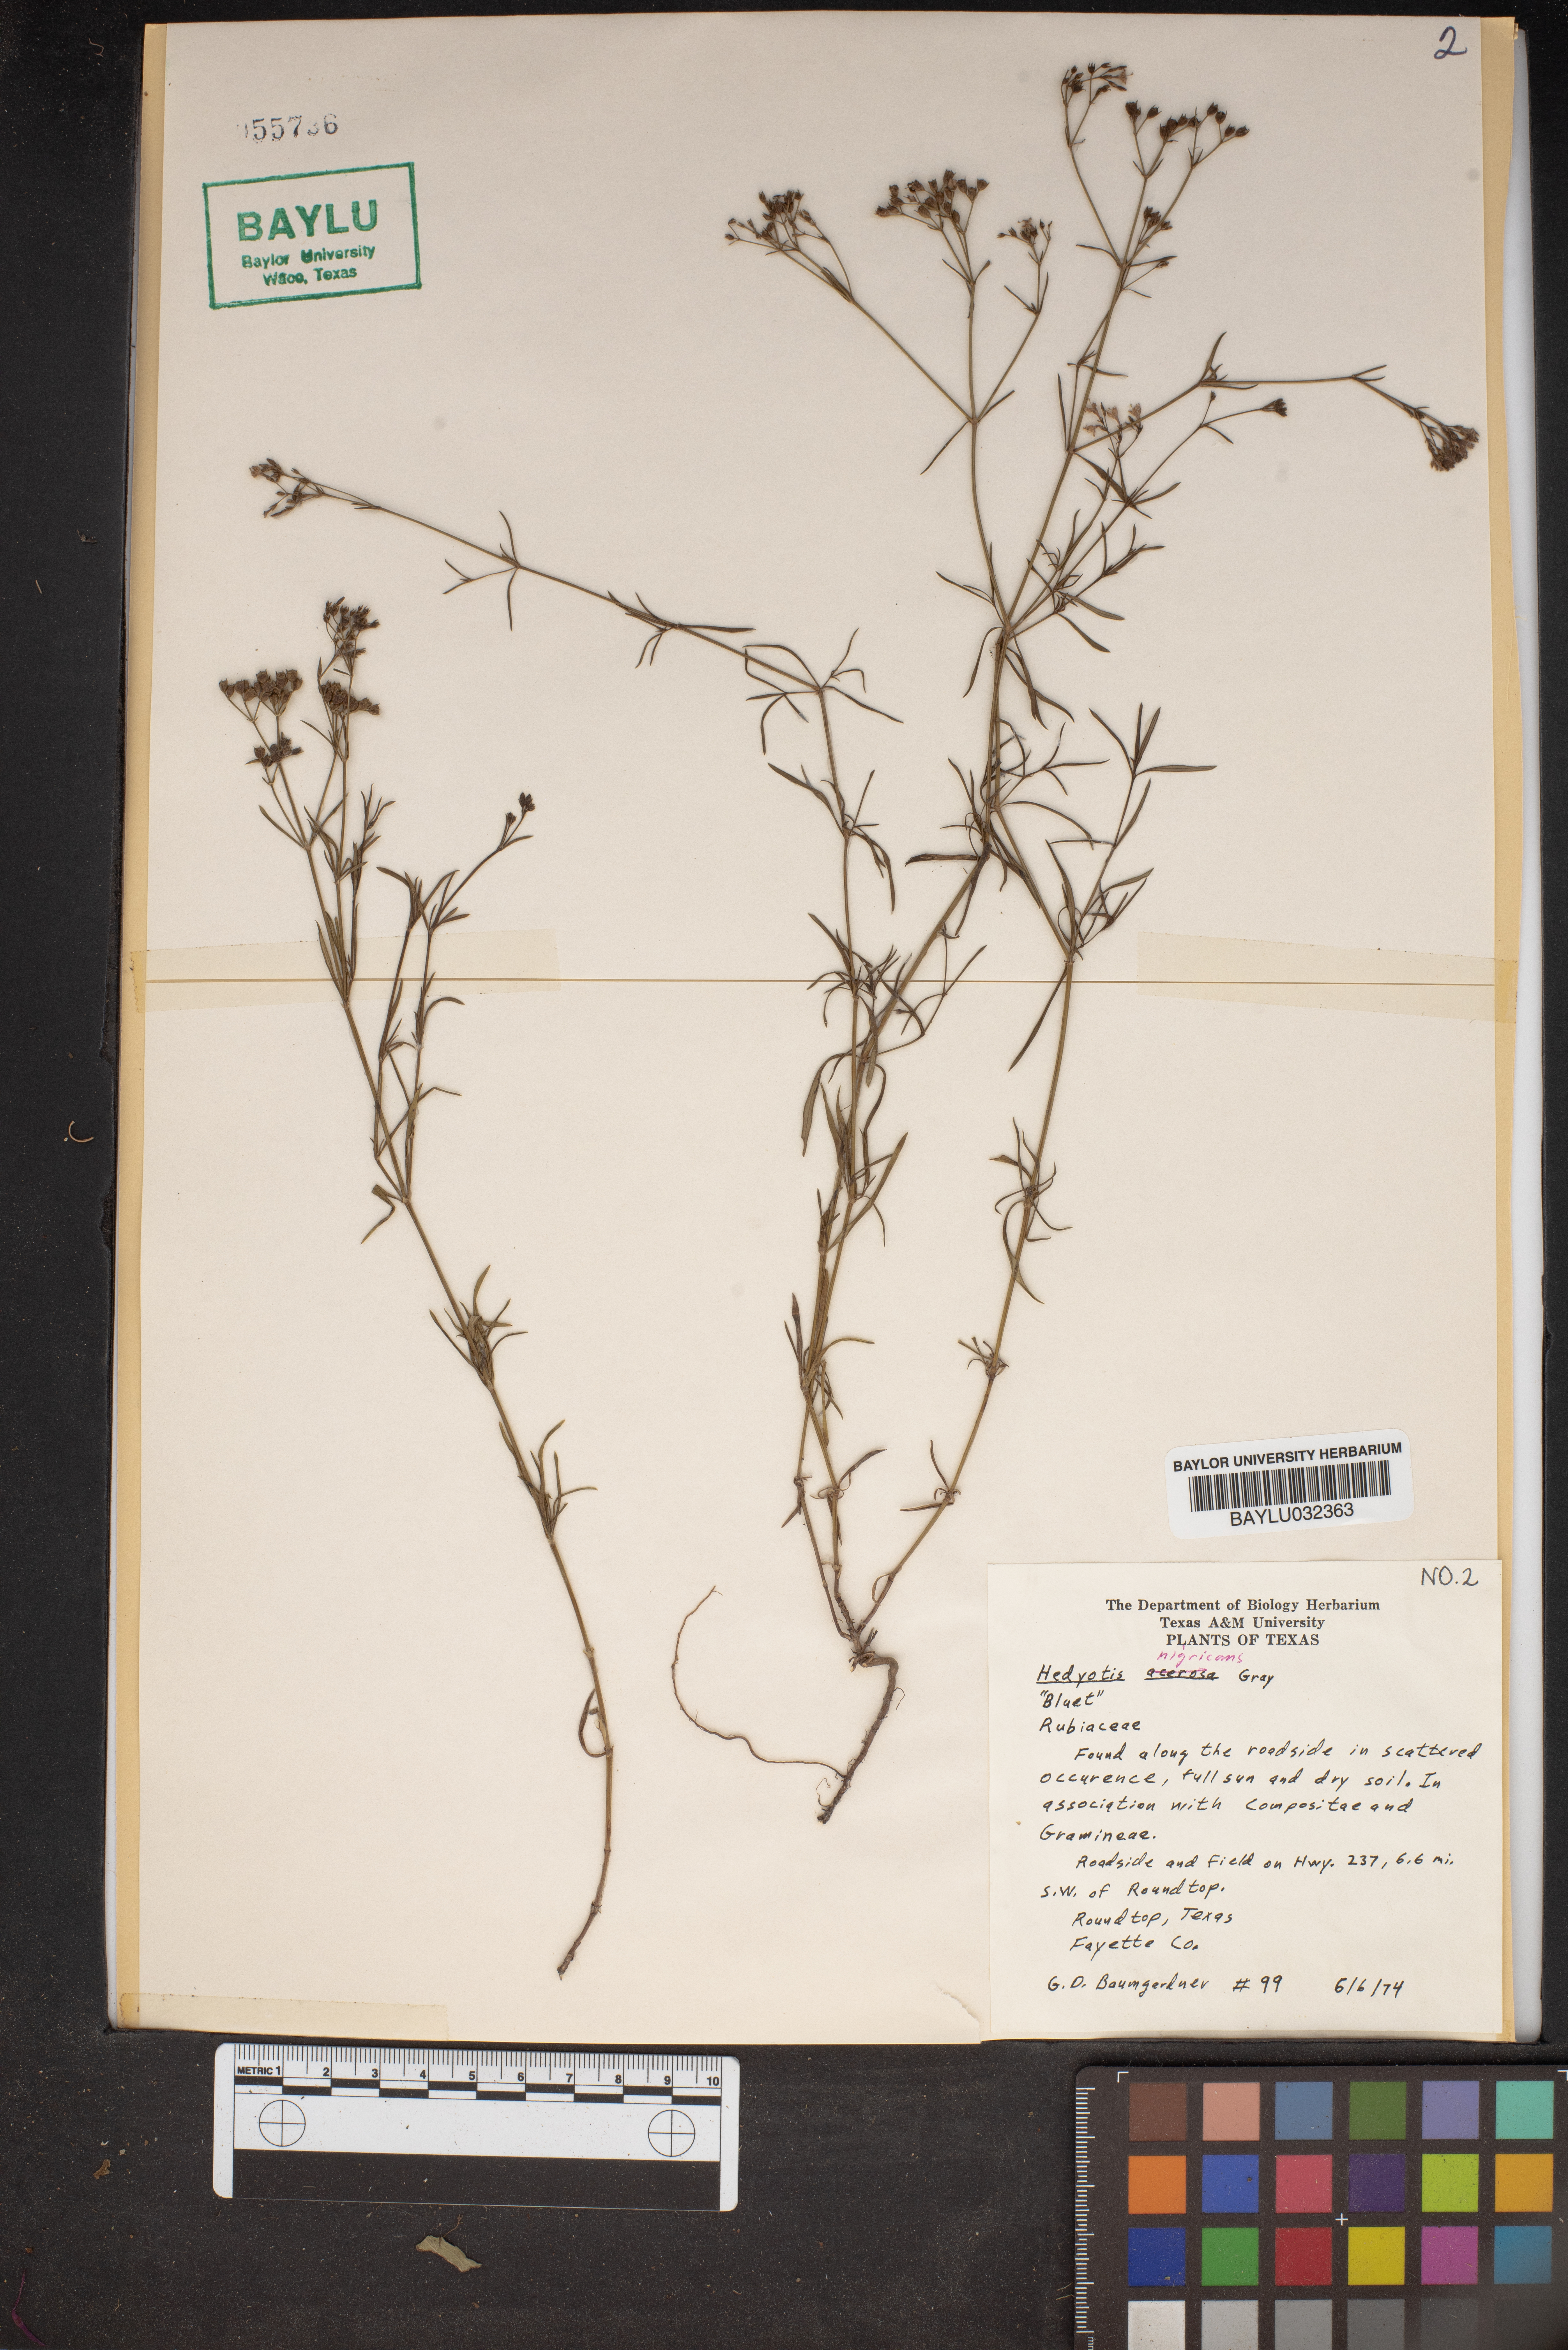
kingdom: Plantae
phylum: Tracheophyta
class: Magnoliopsida
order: Gentianales
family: Rubiaceae
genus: Stenaria
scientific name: Stenaria nigricans
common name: Diamondflowers
